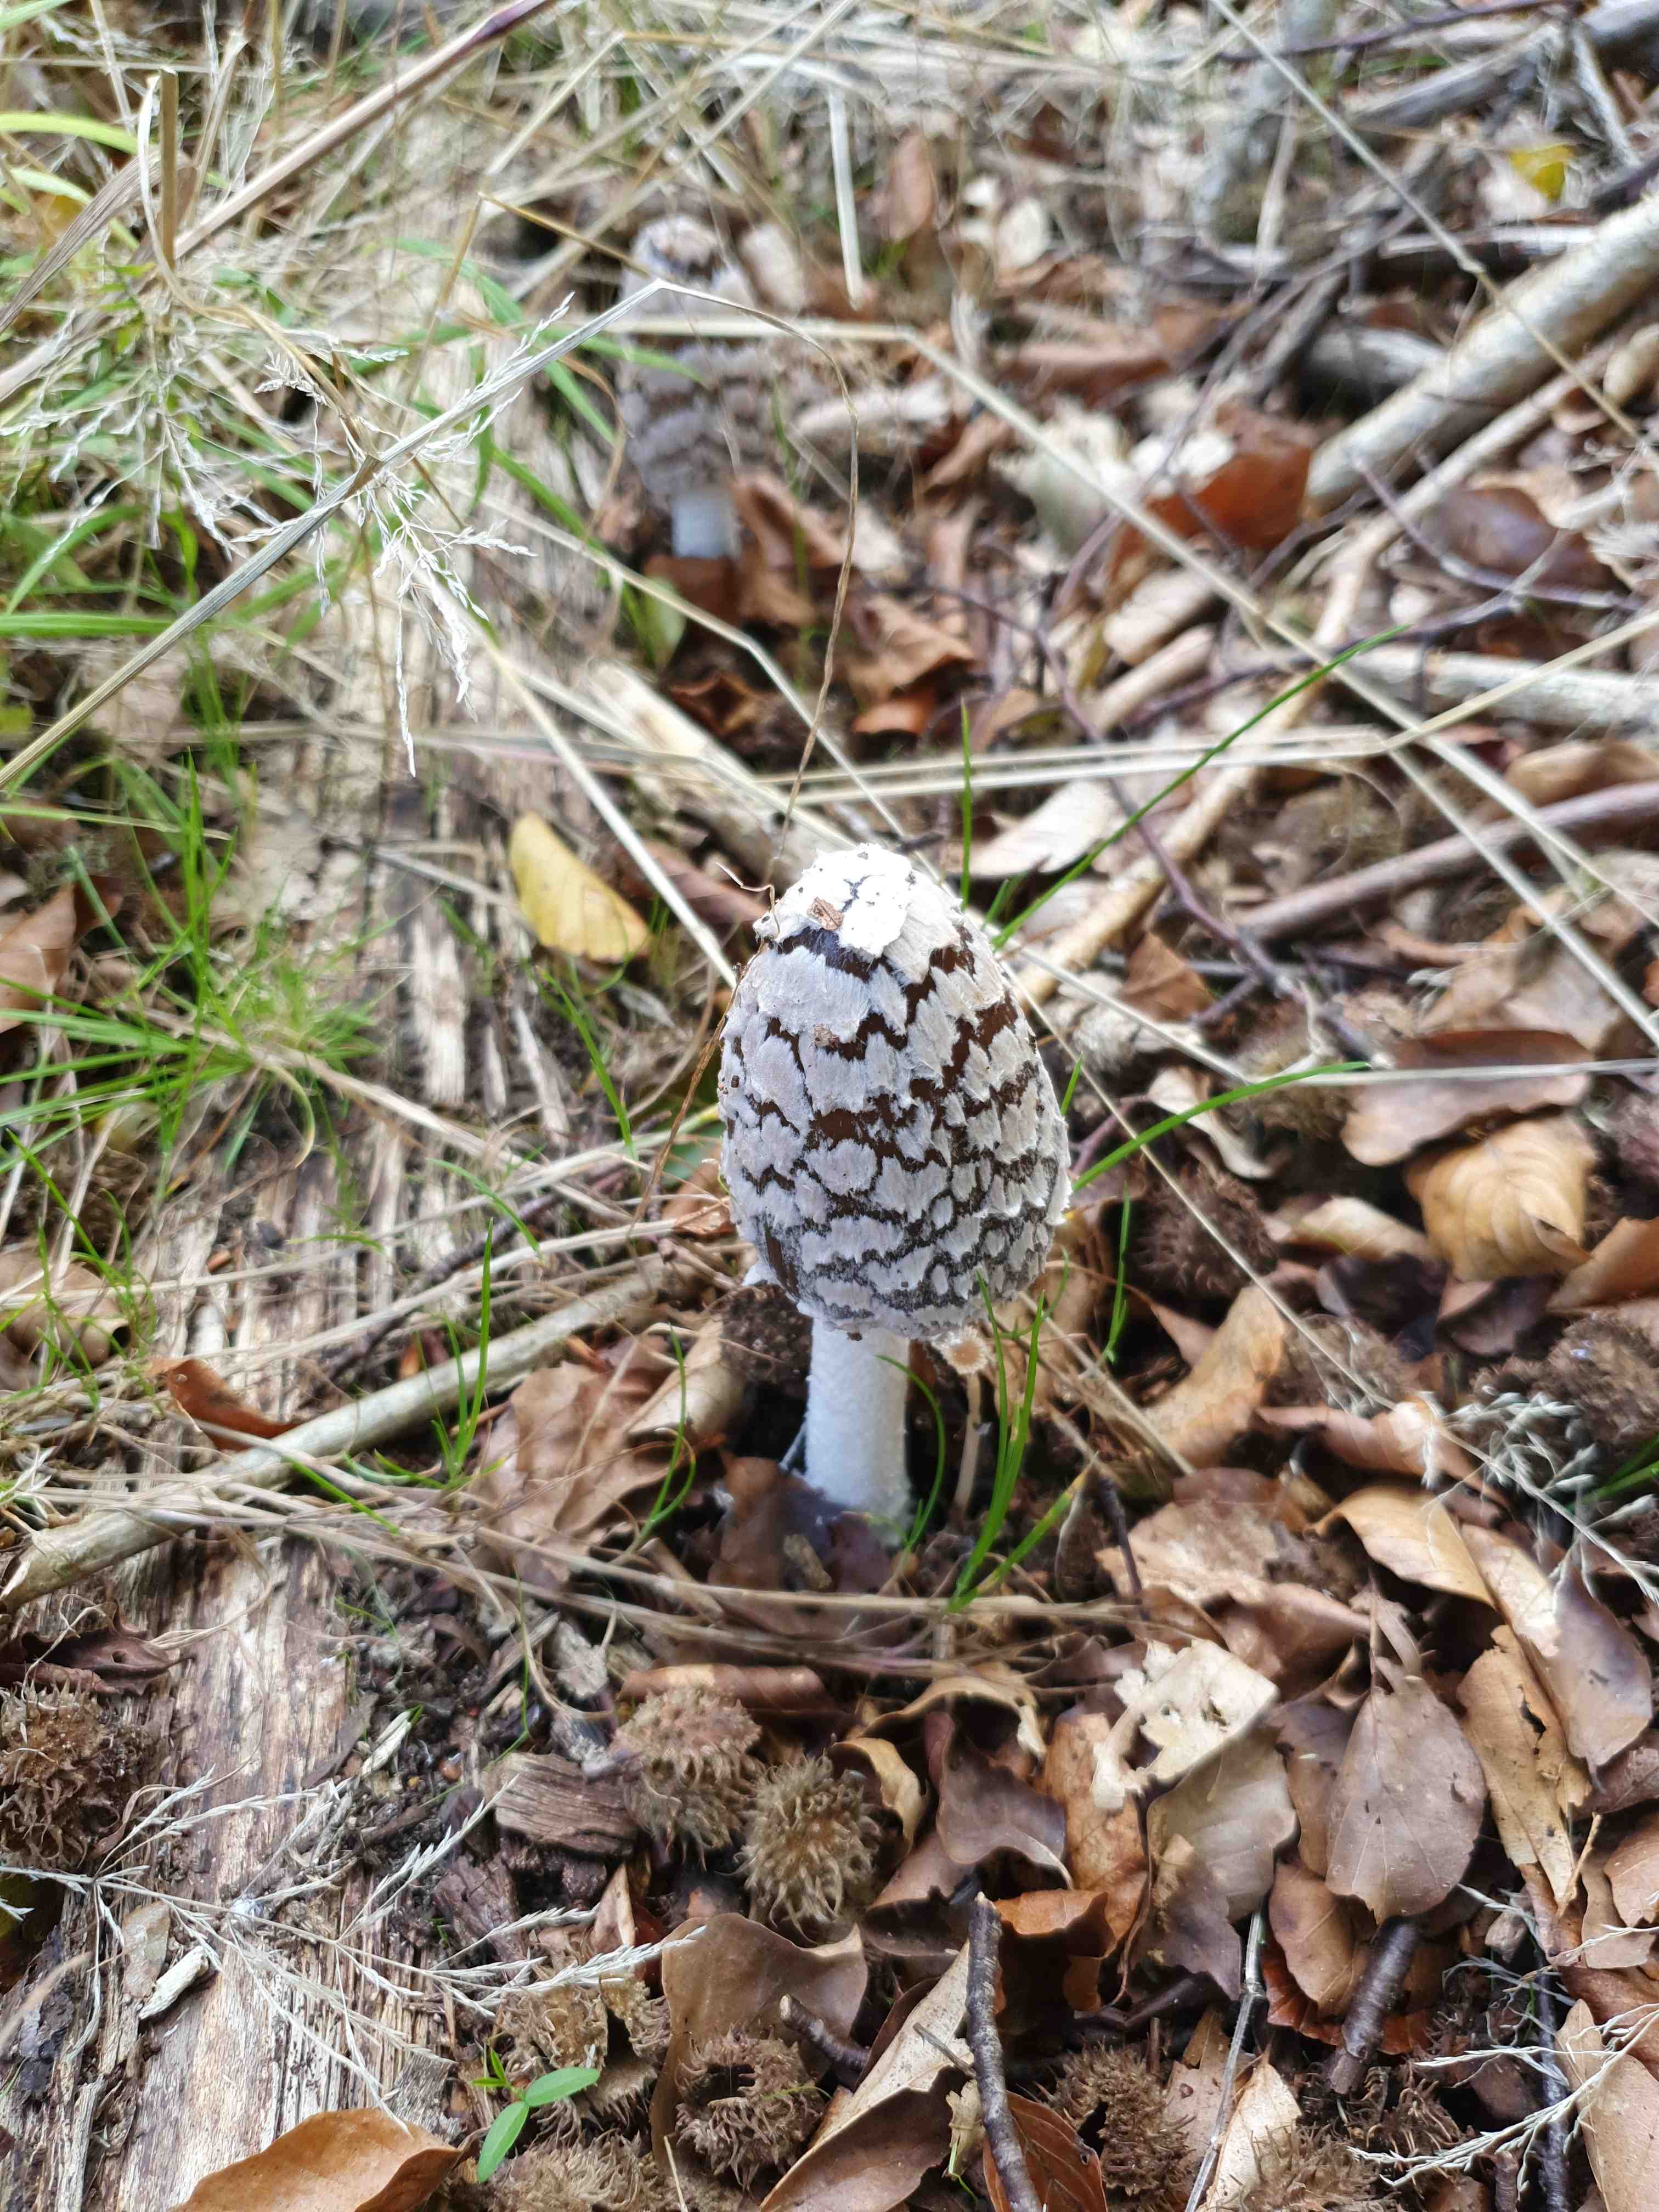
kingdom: Fungi
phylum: Basidiomycota
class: Agaricomycetes
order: Agaricales
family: Psathyrellaceae
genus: Coprinopsis
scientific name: Coprinopsis picacea
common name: skade-blækhat
